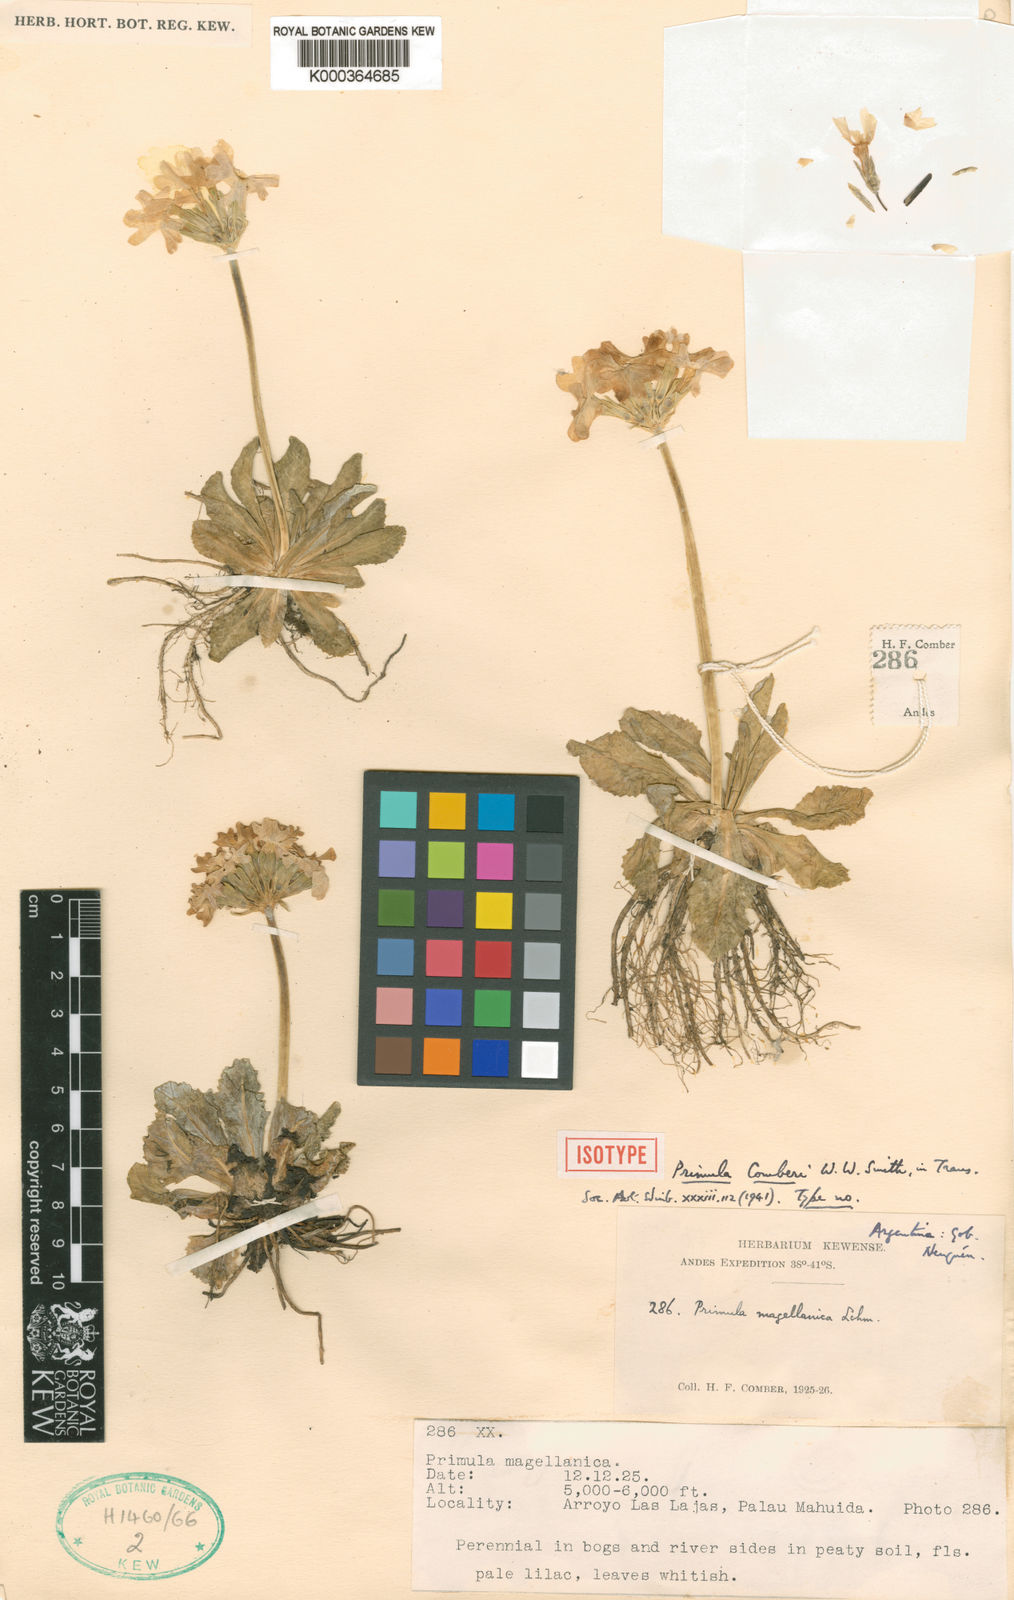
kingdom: Plantae
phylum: Tracheophyta
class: Magnoliopsida
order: Ericales
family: Primulaceae
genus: Primula
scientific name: Primula comberi
